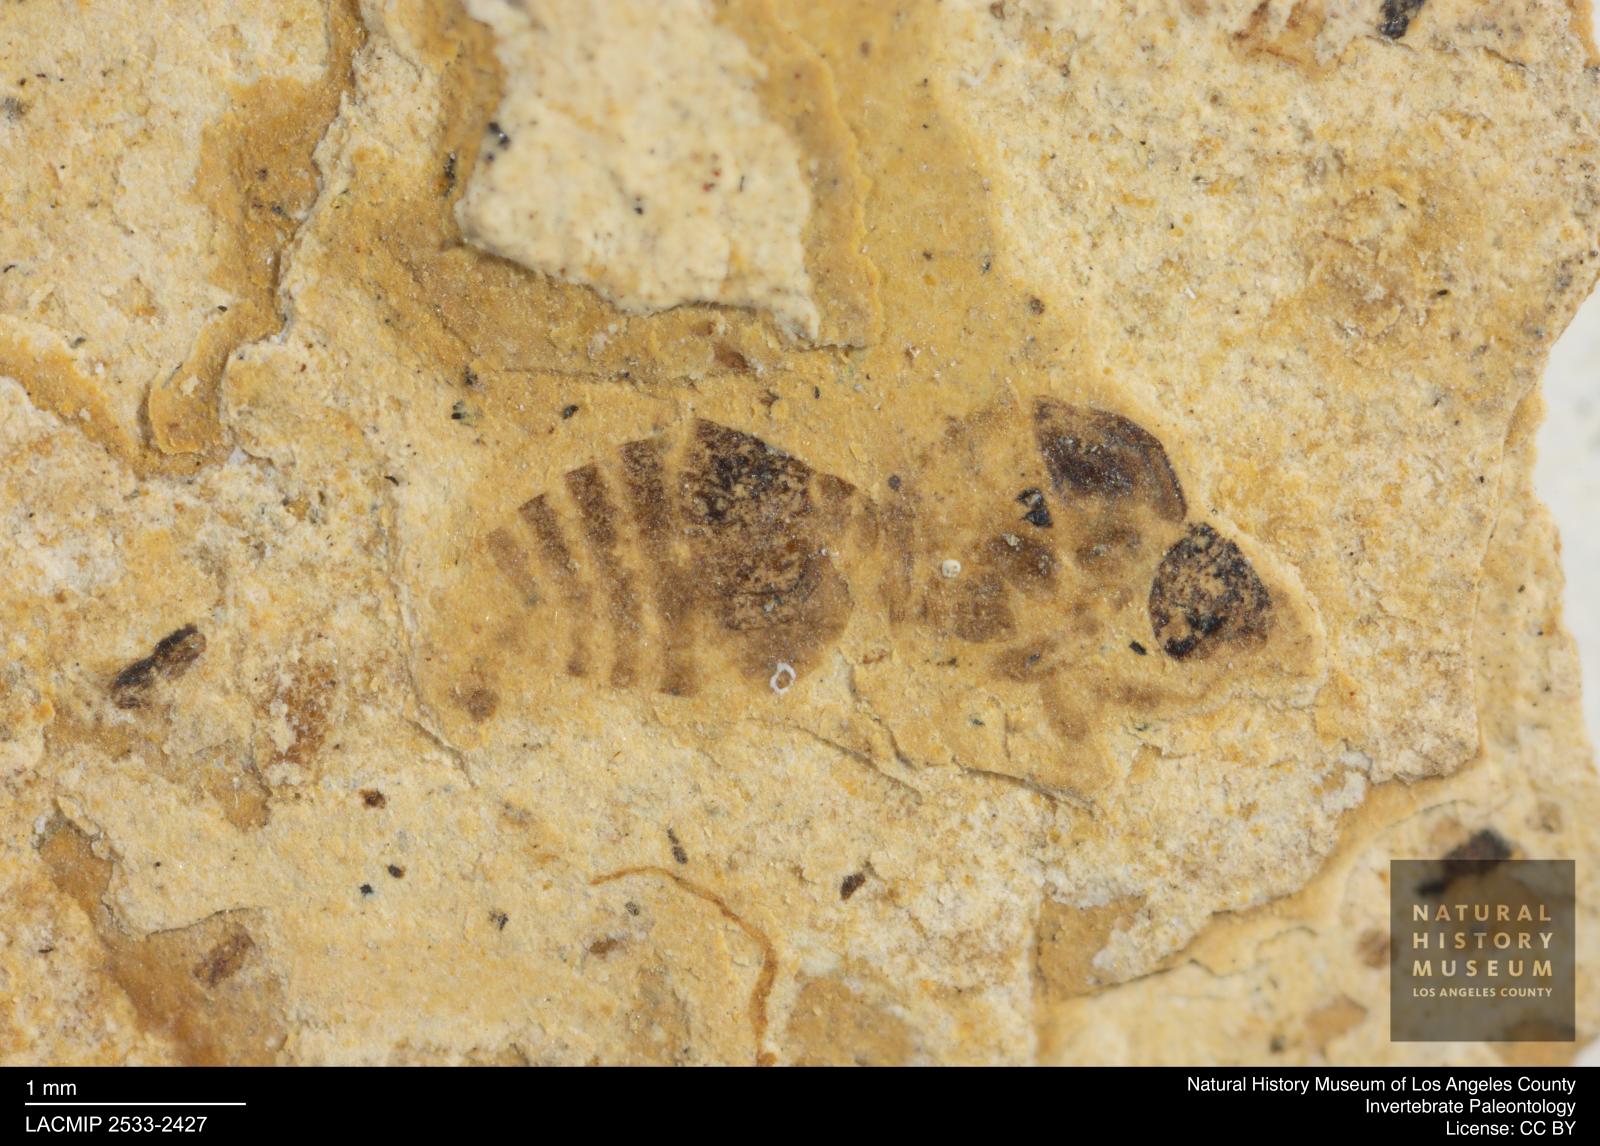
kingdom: Animalia
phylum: Arthropoda
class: Insecta
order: Hymenoptera
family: Formicidae
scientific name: Formicidae
